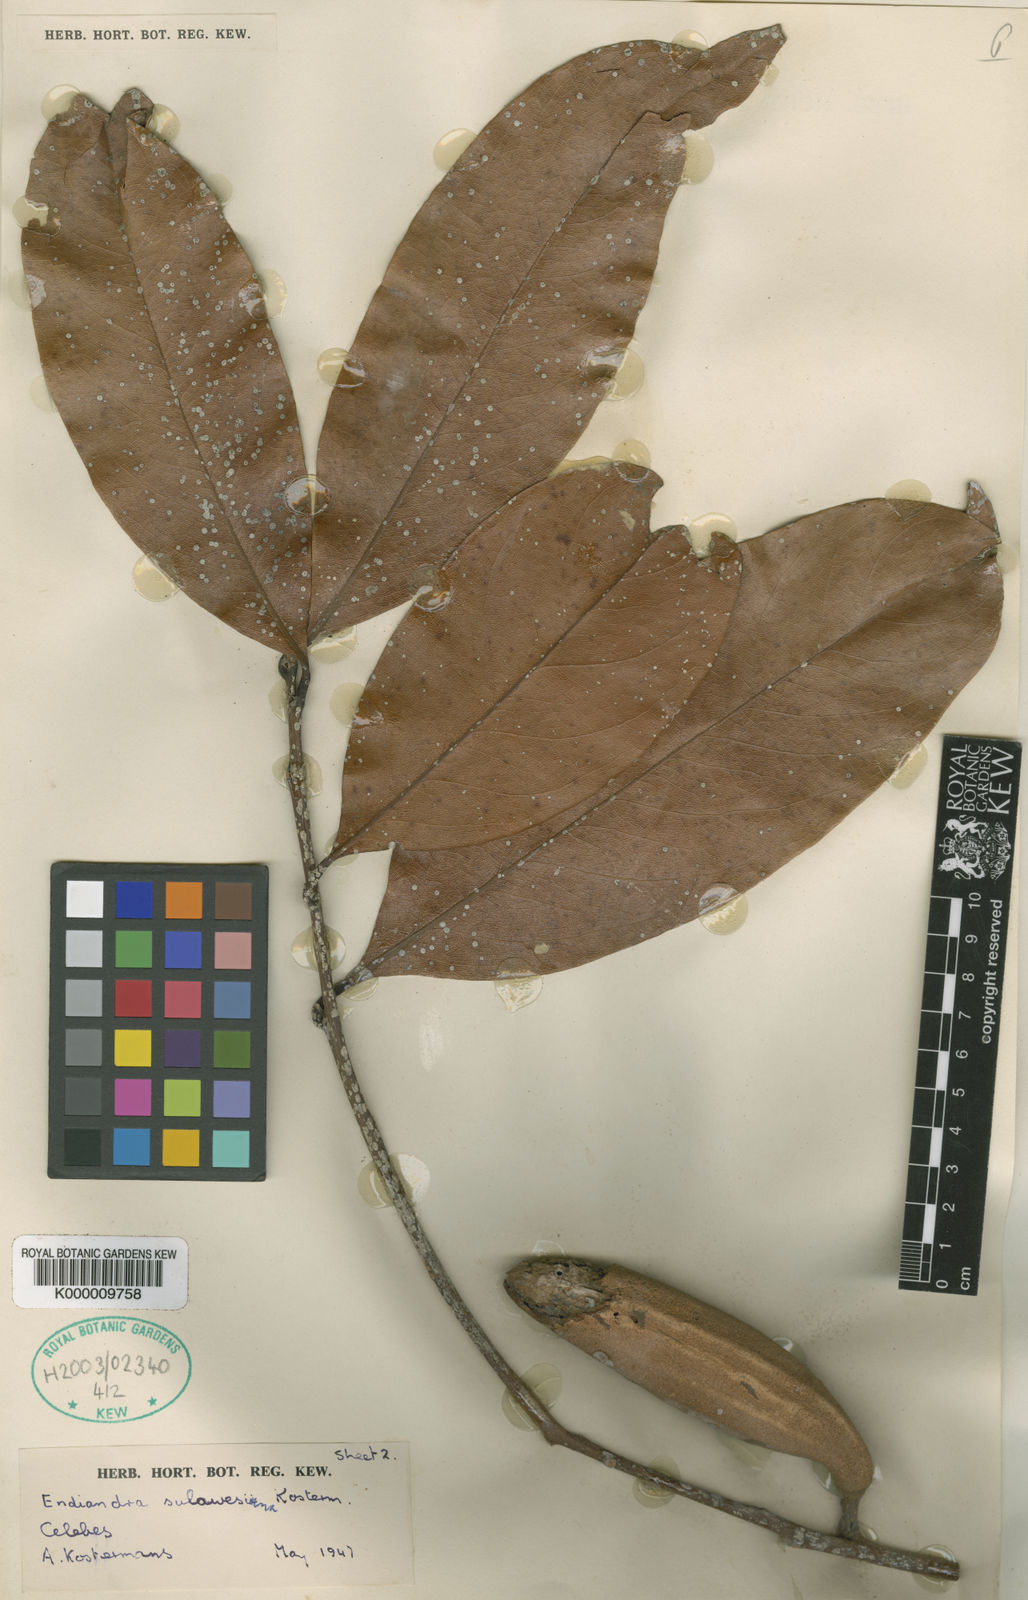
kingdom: Plantae
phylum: Tracheophyta
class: Magnoliopsida
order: Laurales
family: Lauraceae
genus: Endiandra
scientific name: Endiandra
